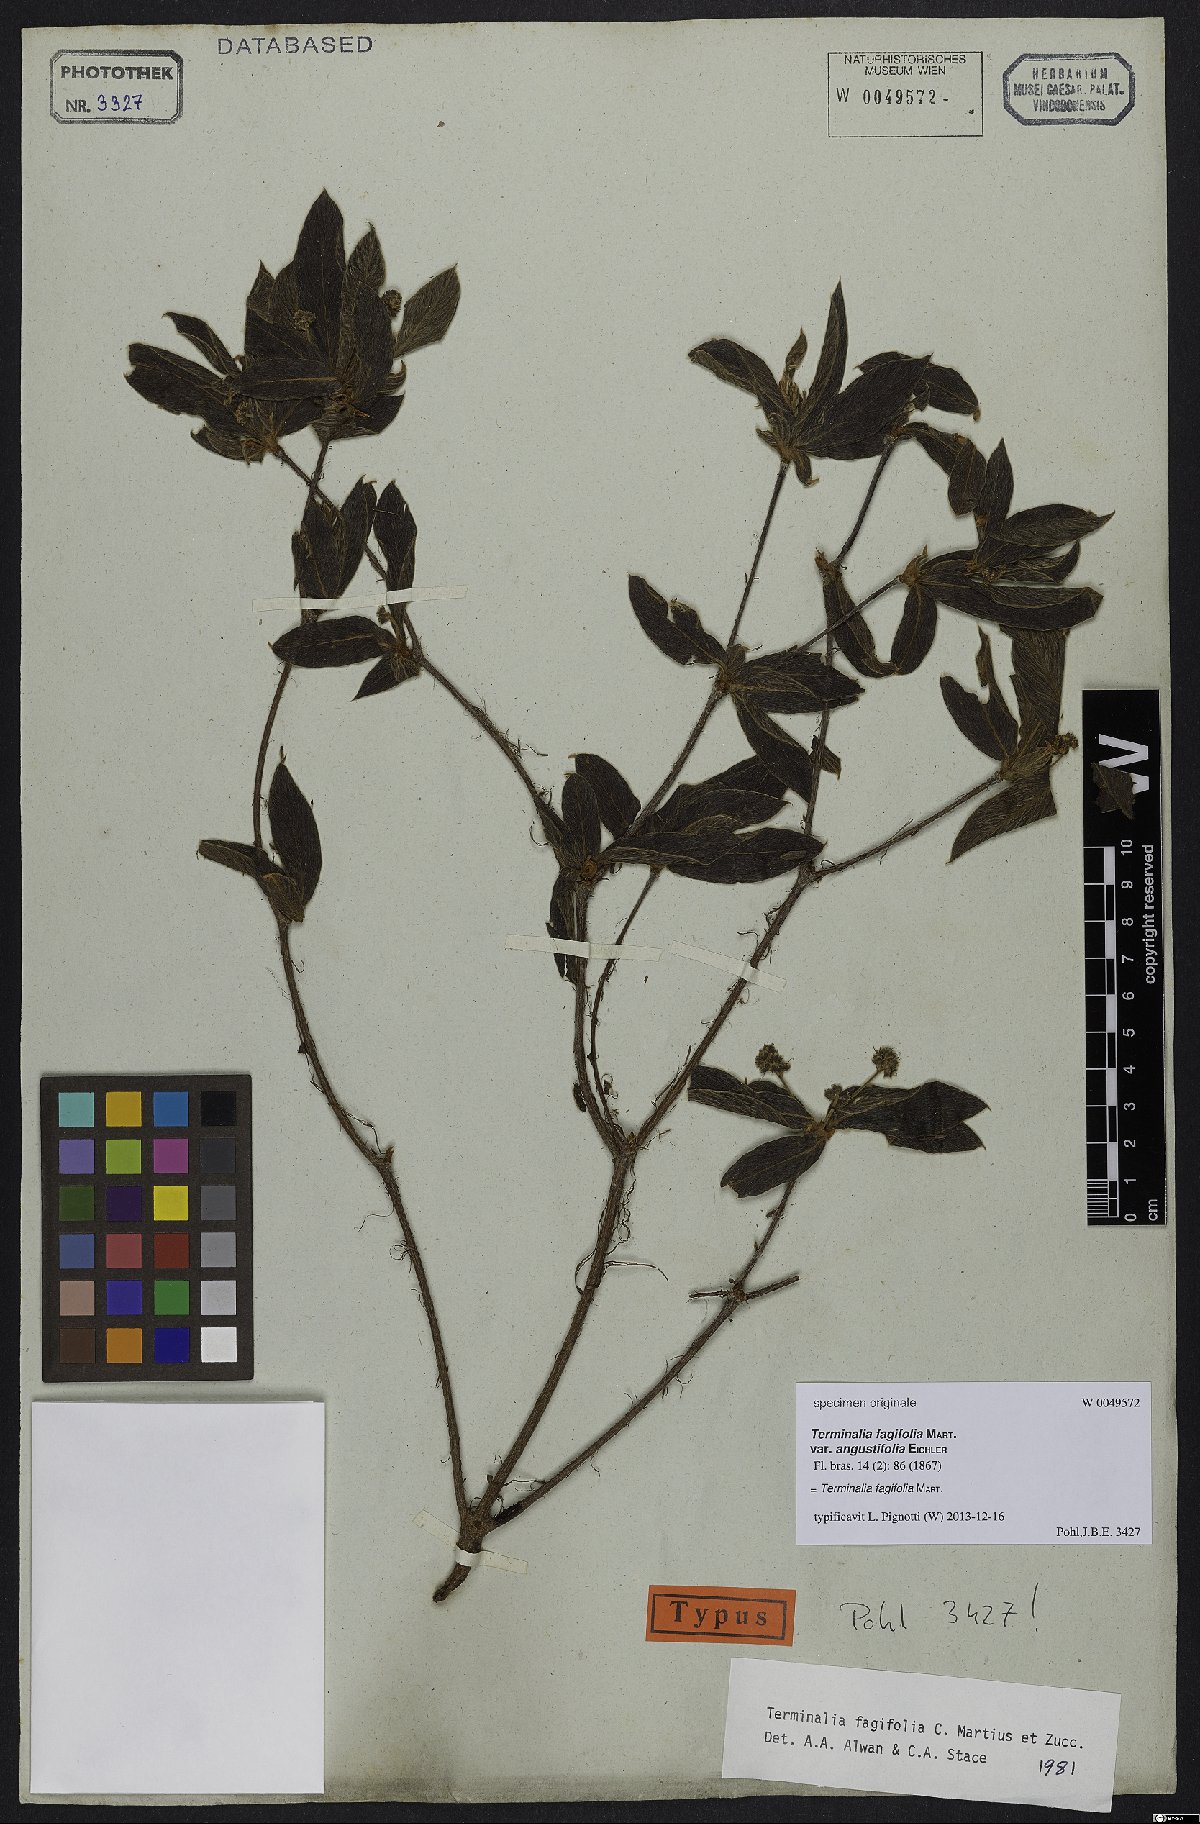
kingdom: Plantae
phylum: Tracheophyta
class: Magnoliopsida
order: Myrtales
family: Combretaceae
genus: Terminalia
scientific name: Terminalia fagifolia
